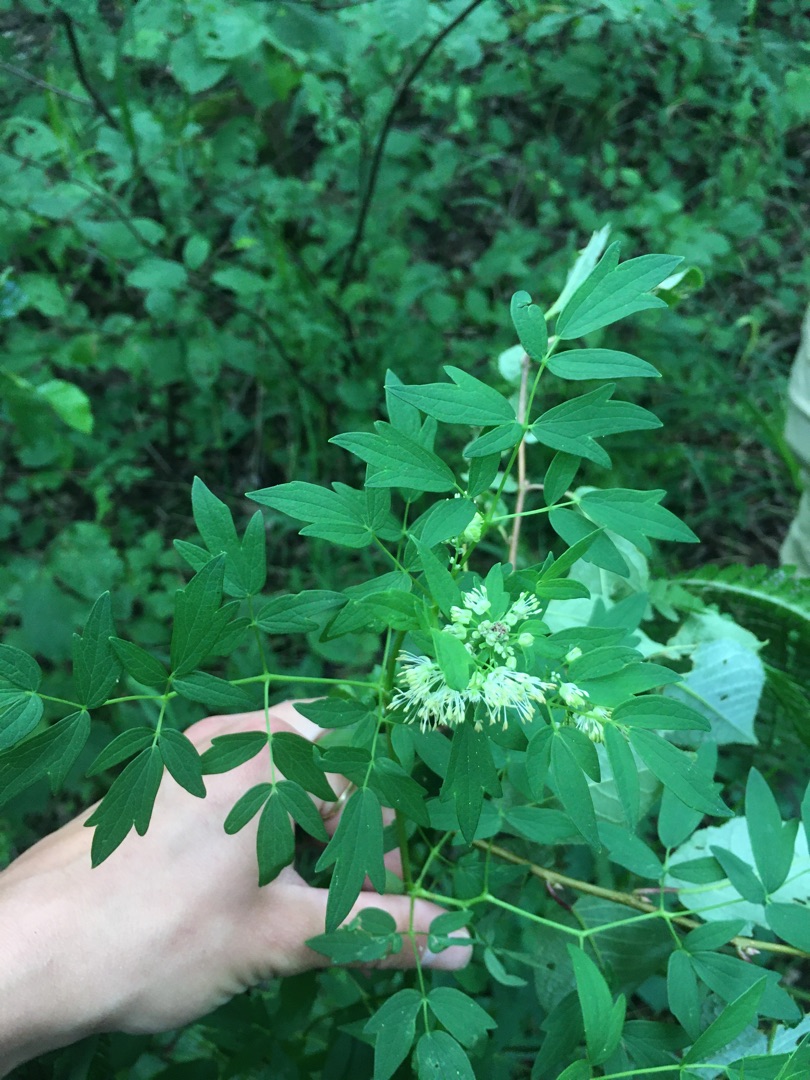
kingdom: Plantae
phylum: Tracheophyta
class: Magnoliopsida
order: Ranunculales
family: Ranunculaceae
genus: Thalictrum
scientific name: Thalictrum flavum
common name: Gul frøstjerne
